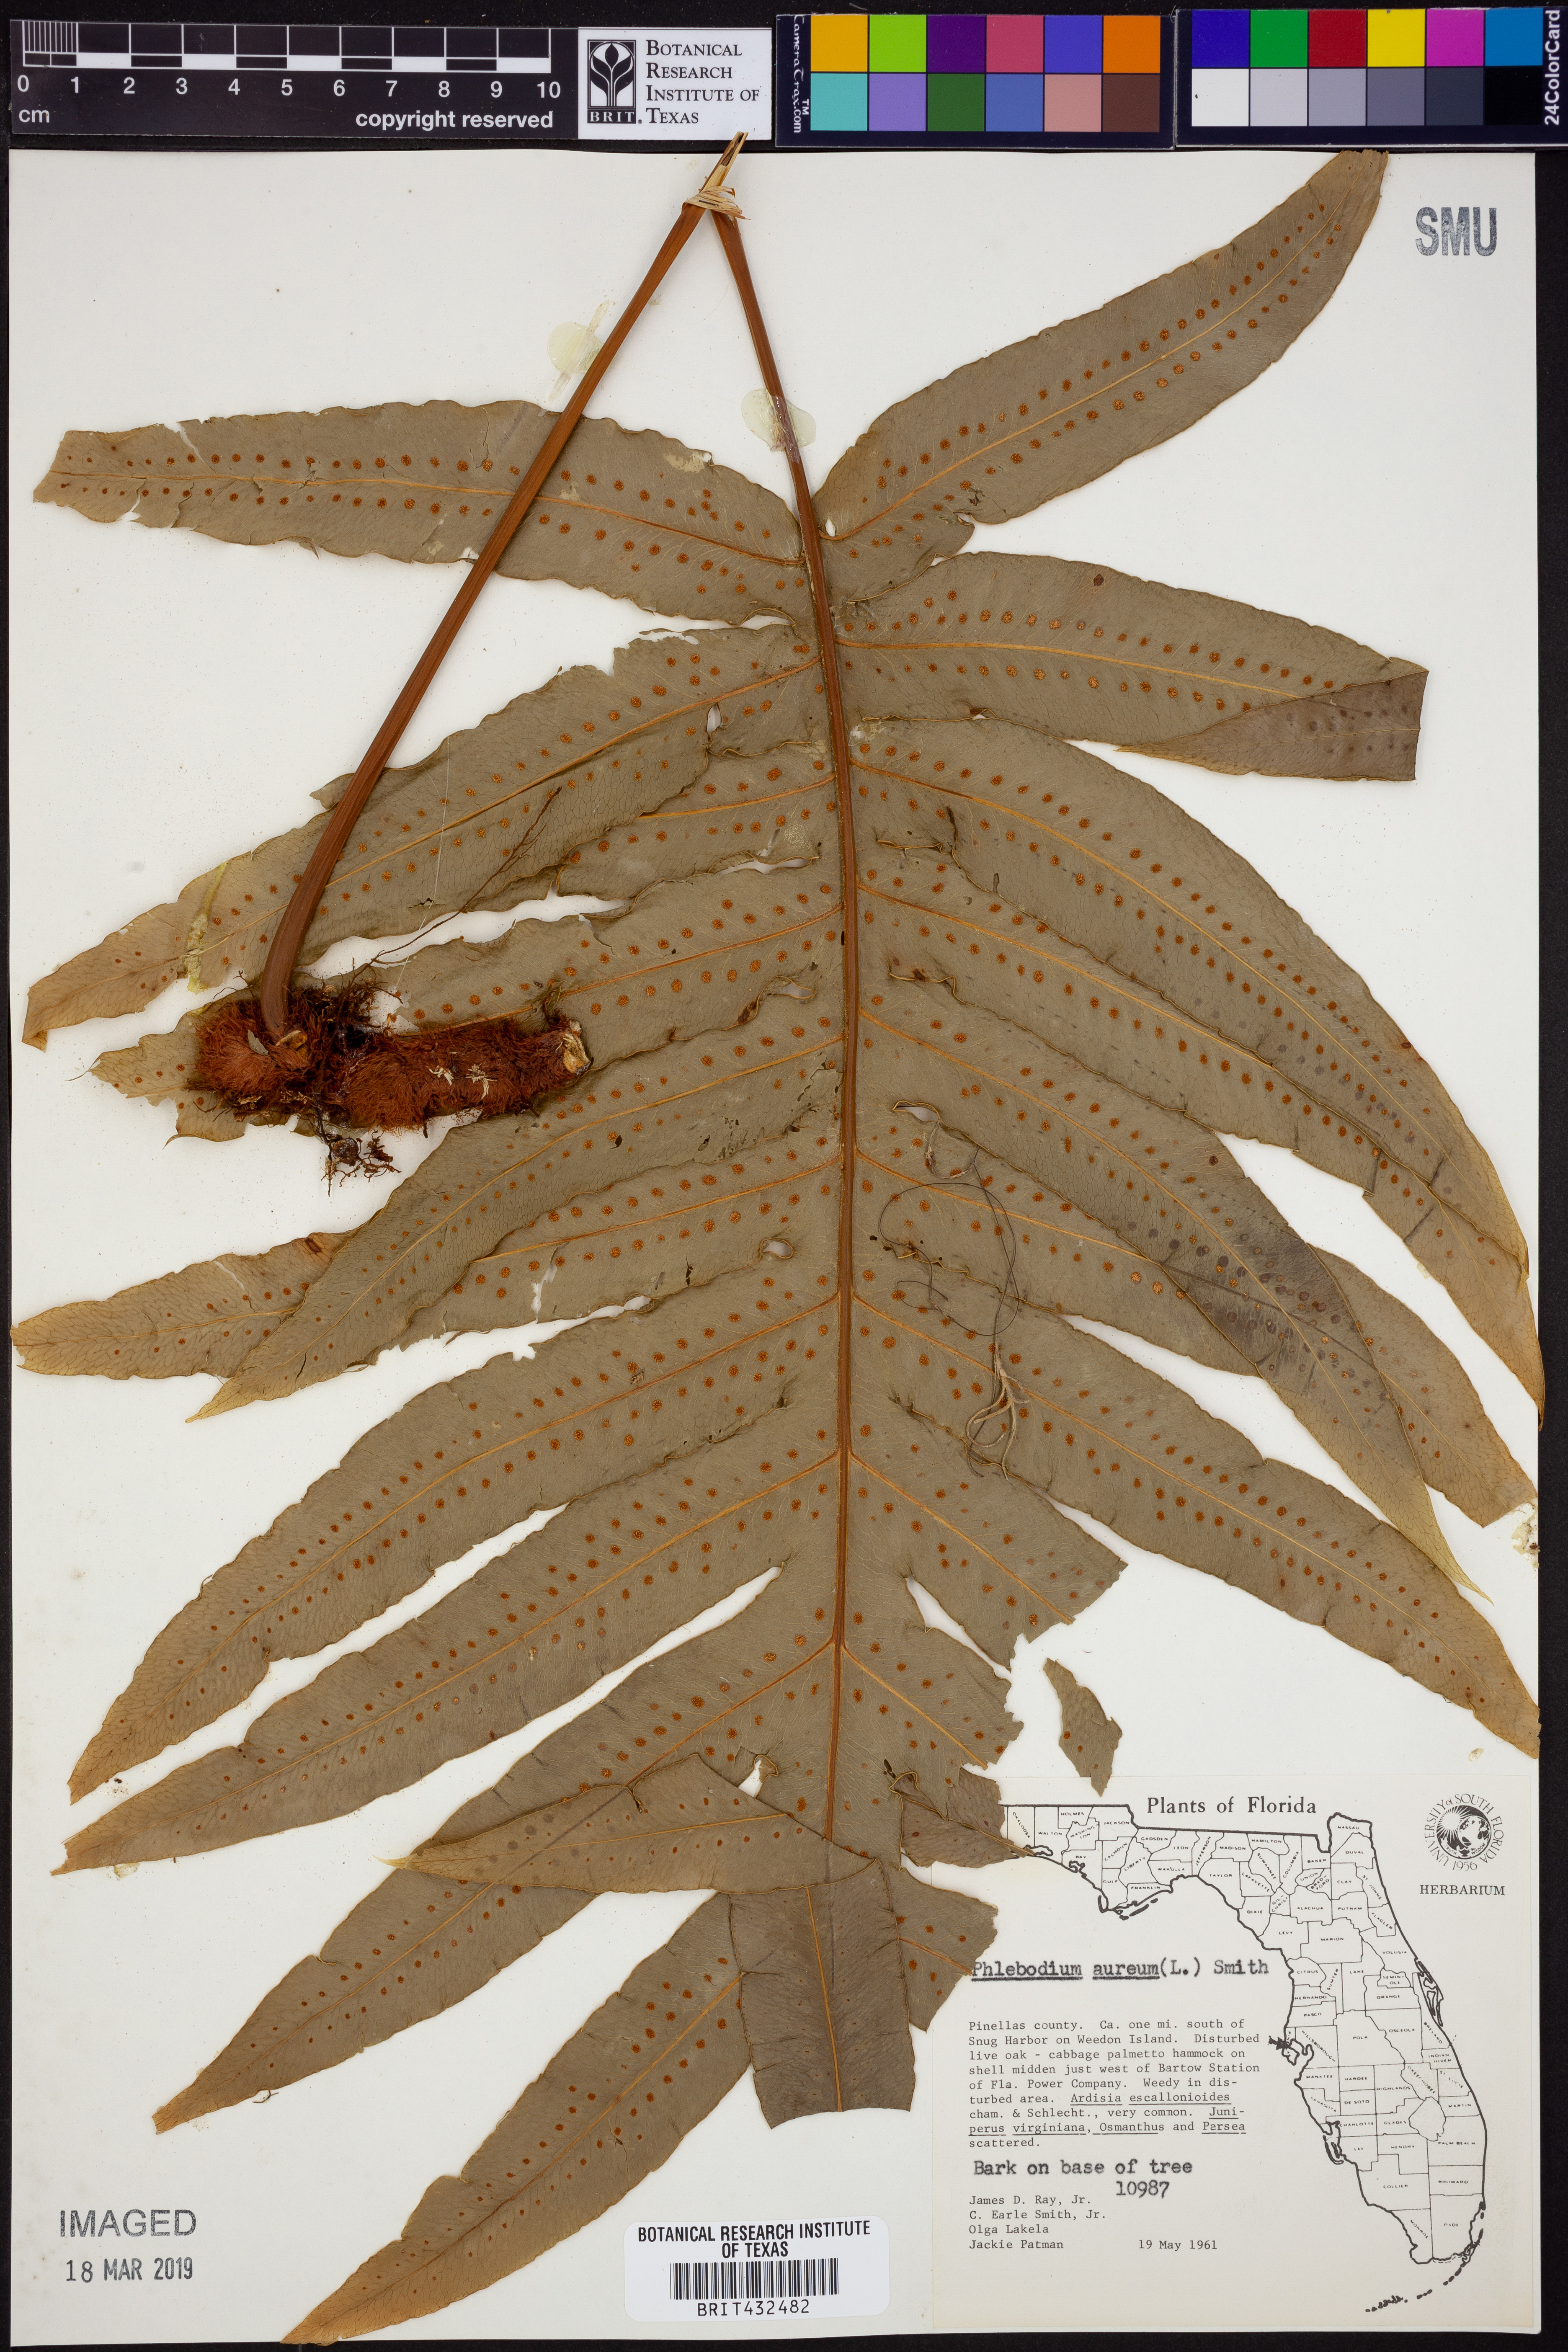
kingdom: Plantae
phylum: Tracheophyta
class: Polypodiopsida
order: Polypodiales
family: Polypodiaceae
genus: Phlebodium
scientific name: Phlebodium aureum
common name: Gold-foot fern
